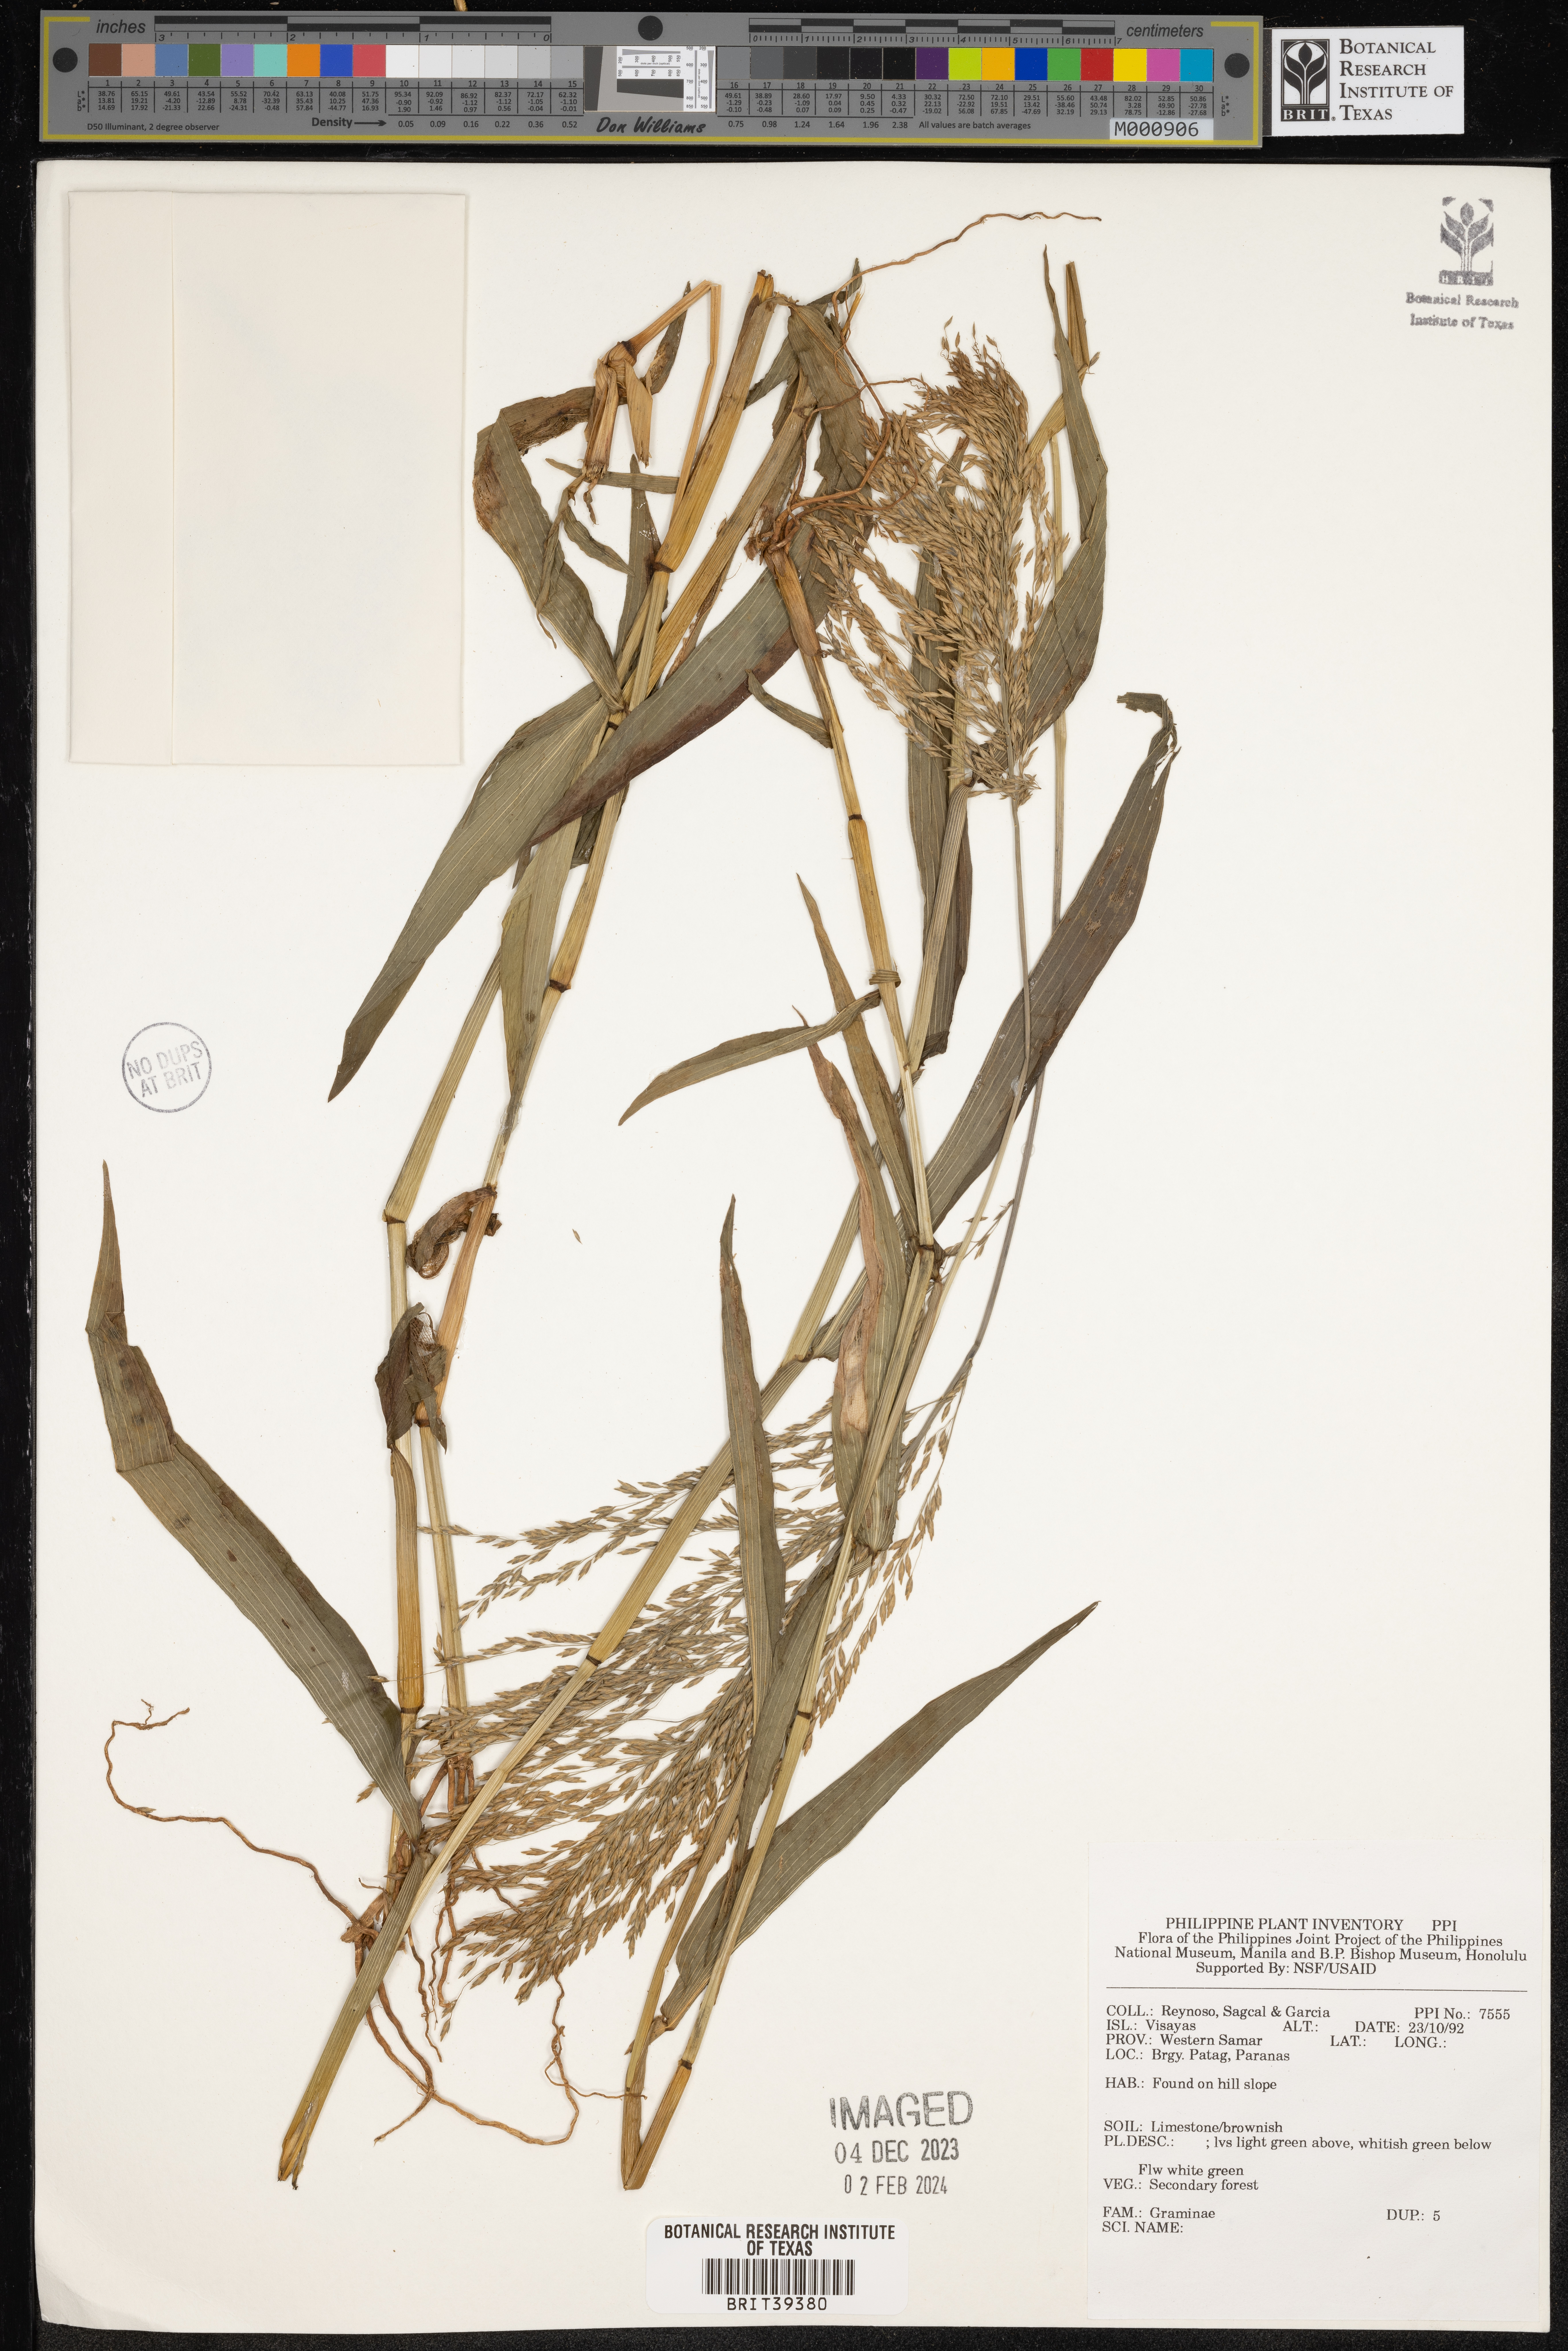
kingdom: Plantae
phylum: Tracheophyta
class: Liliopsida
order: Poales
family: Poaceae
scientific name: Poaceae
